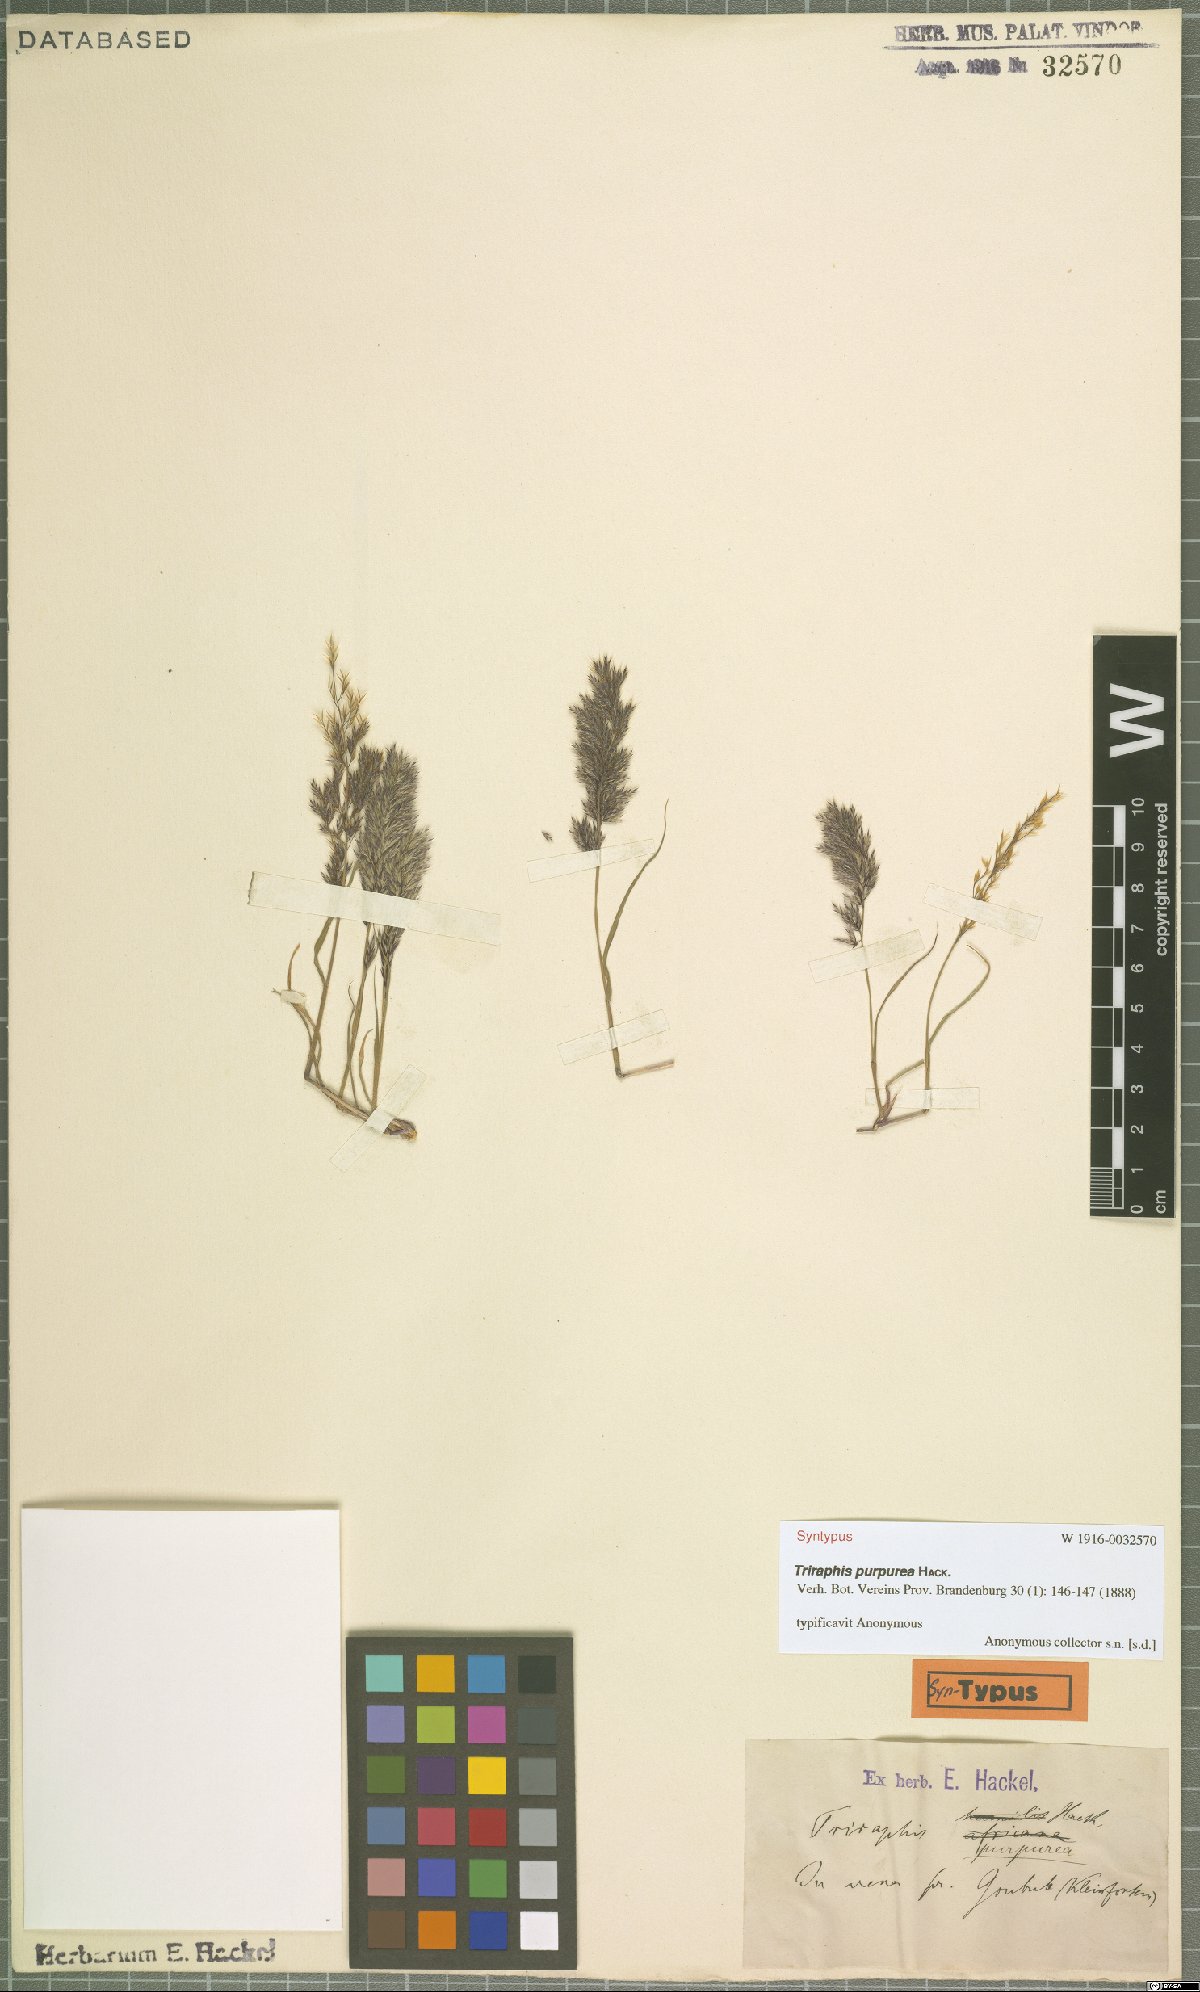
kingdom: Plantae
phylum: Tracheophyta
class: Liliopsida
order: Poales
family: Poaceae
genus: Triraphis
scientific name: Triraphis purpurea
